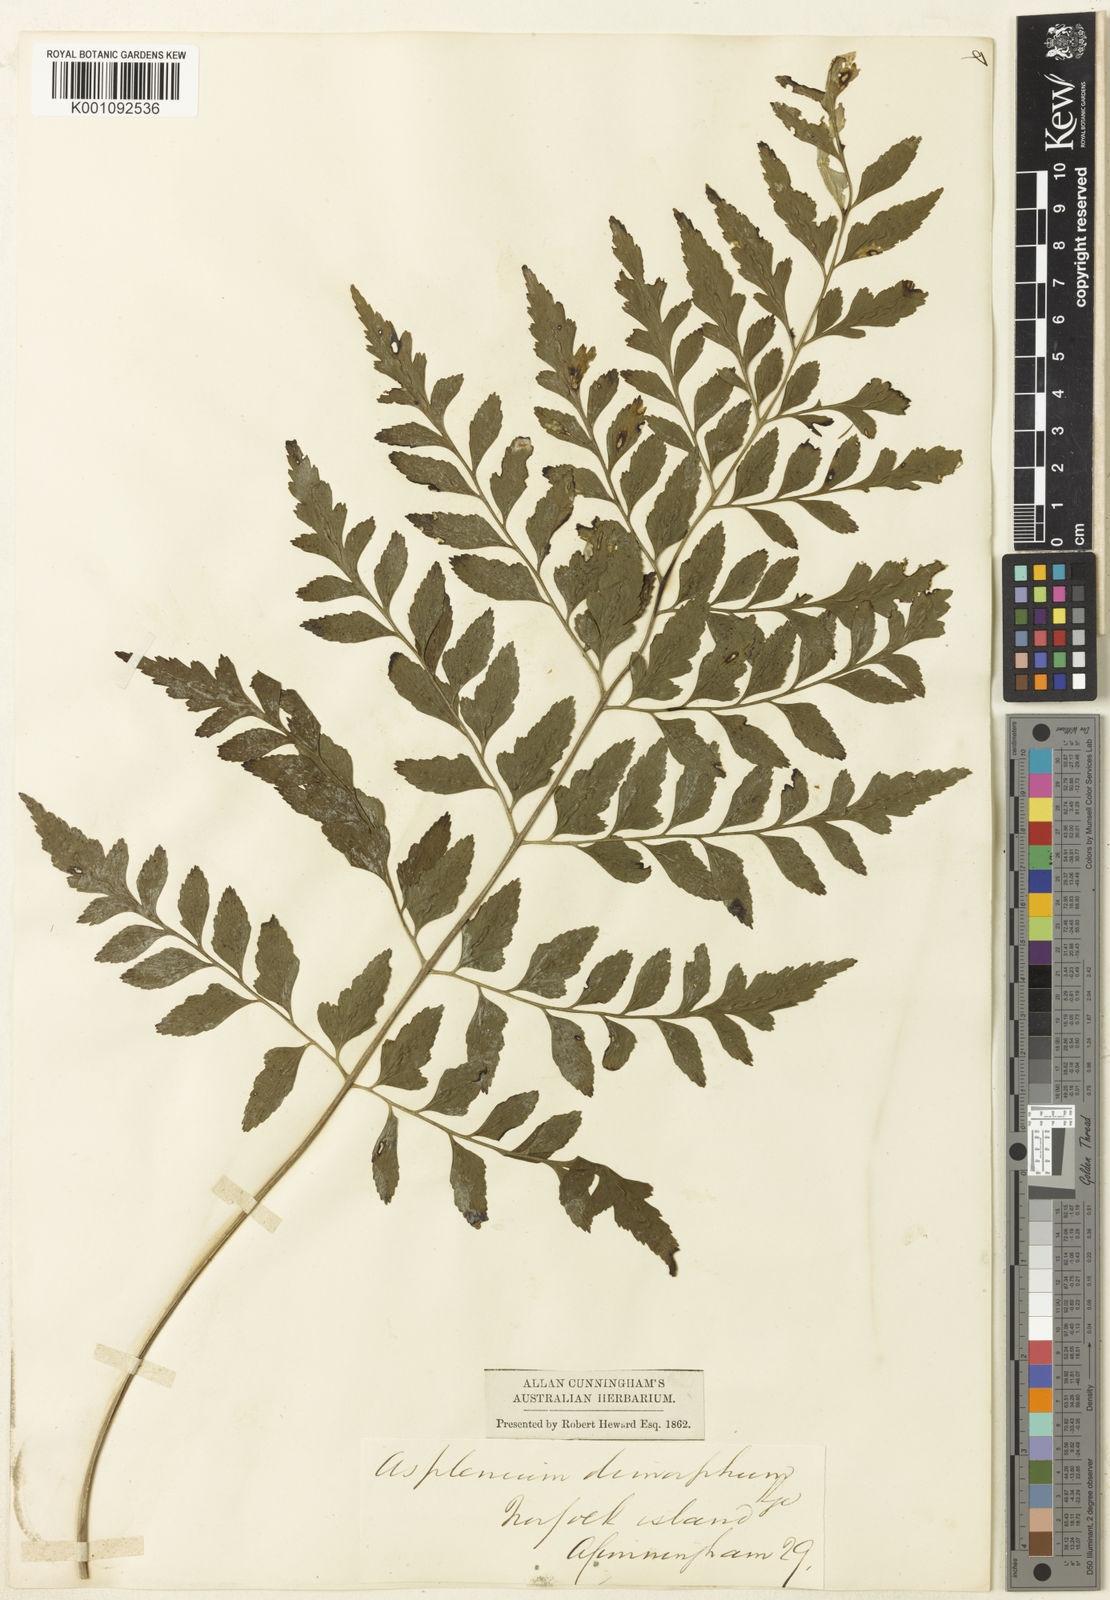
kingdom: Plantae
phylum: Tracheophyta
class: Polypodiopsida
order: Polypodiales
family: Aspleniaceae
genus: Asplenium
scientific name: Asplenium dimorphum
